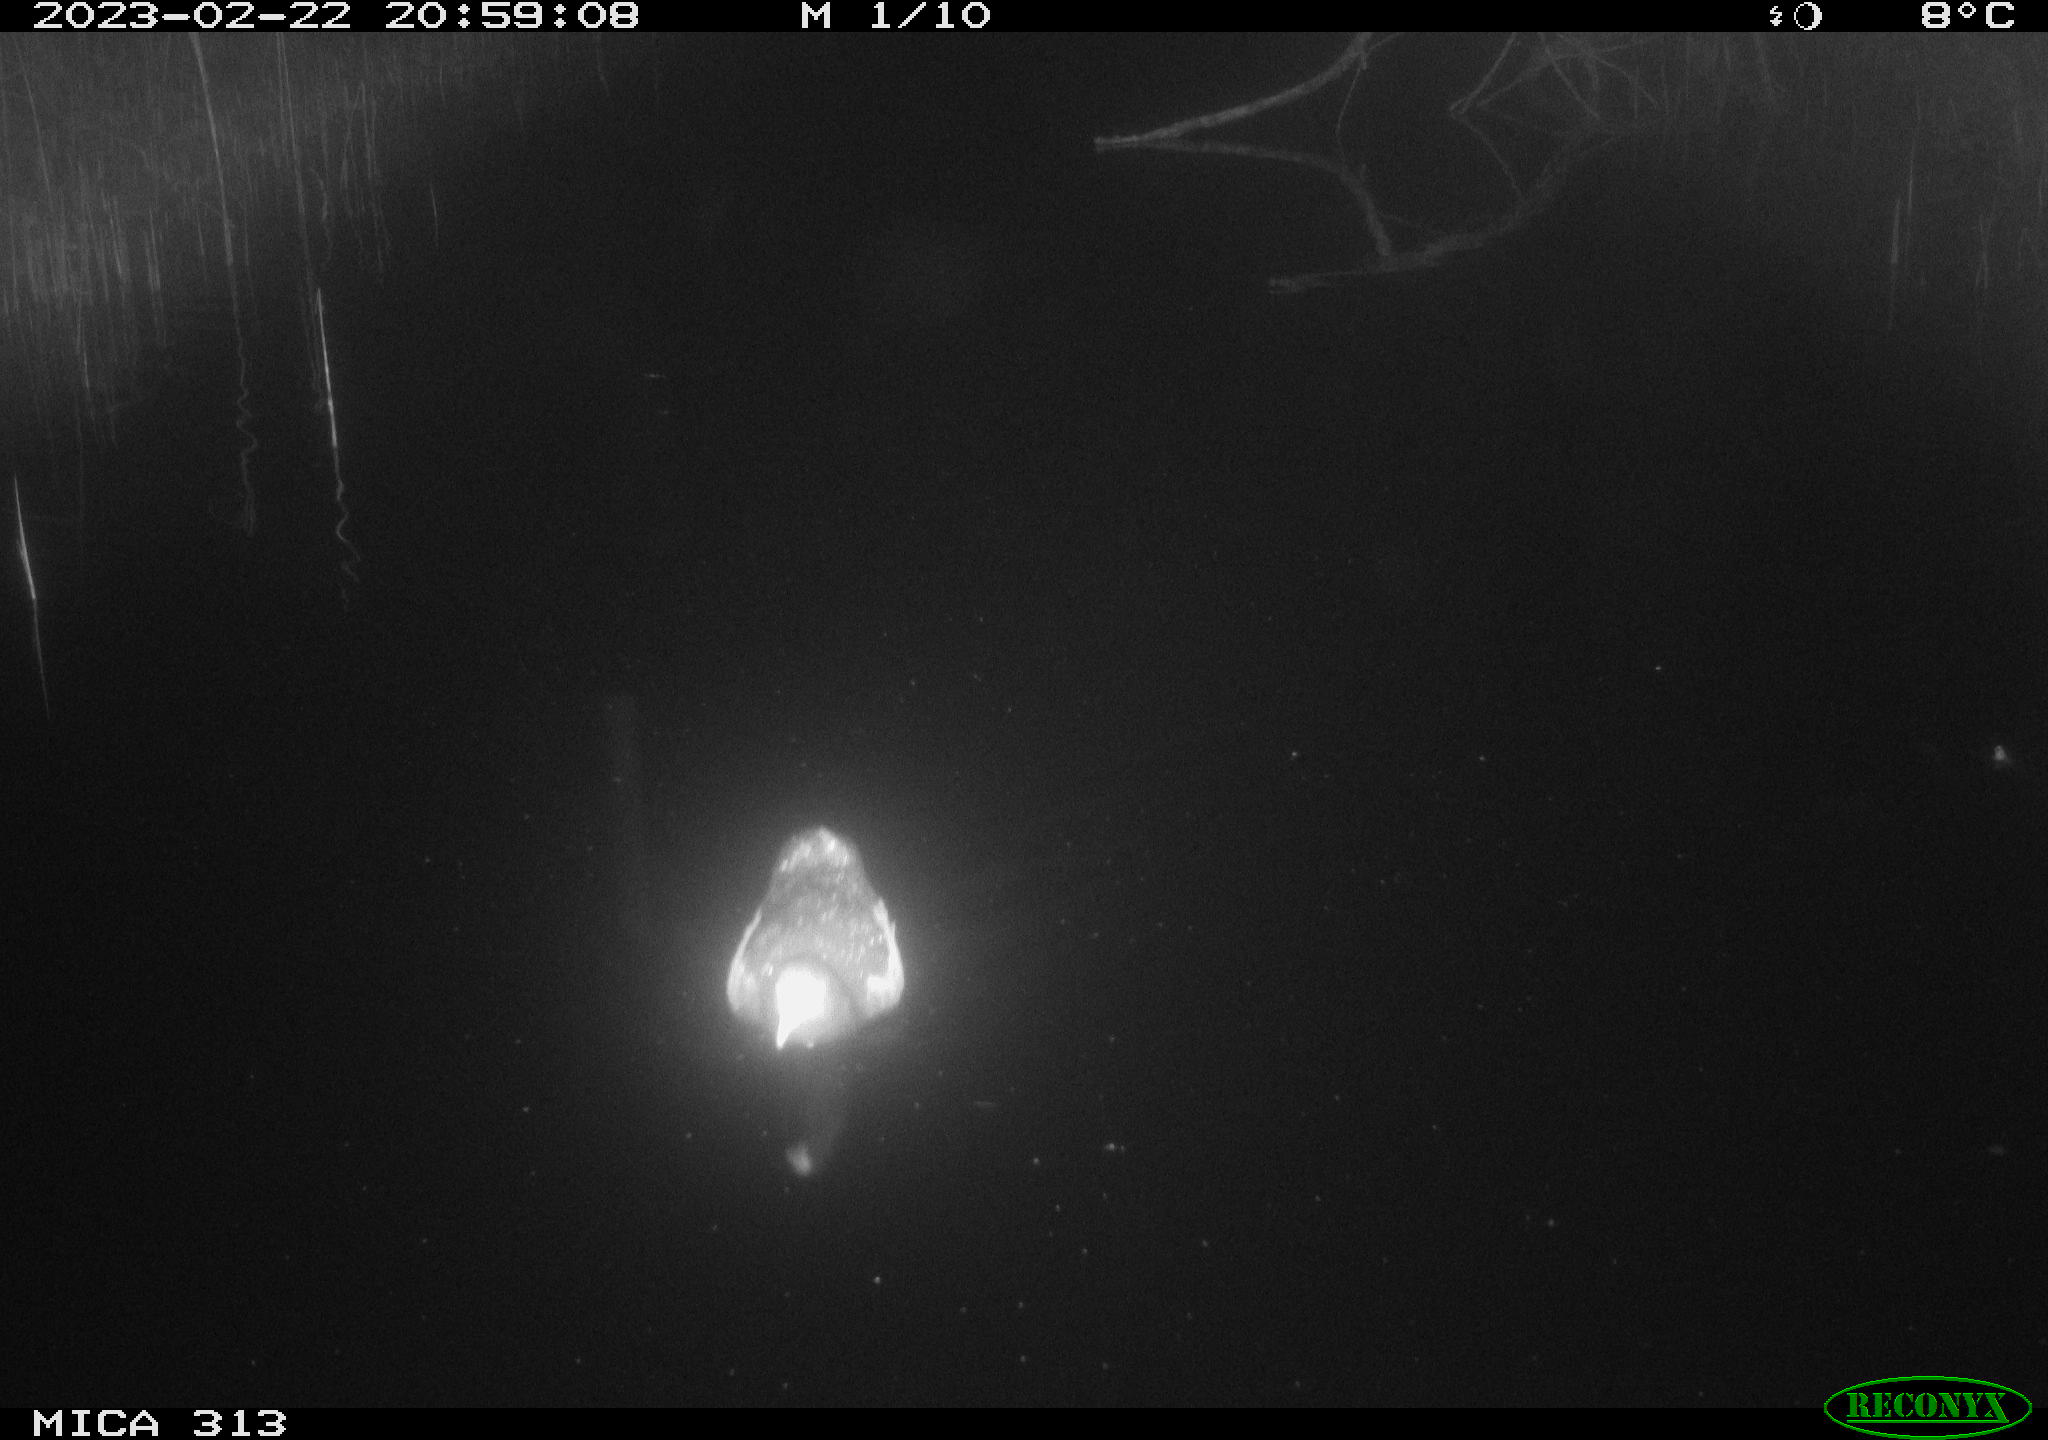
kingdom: Animalia
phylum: Chordata
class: Mammalia
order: Rodentia
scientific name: Rodentia
